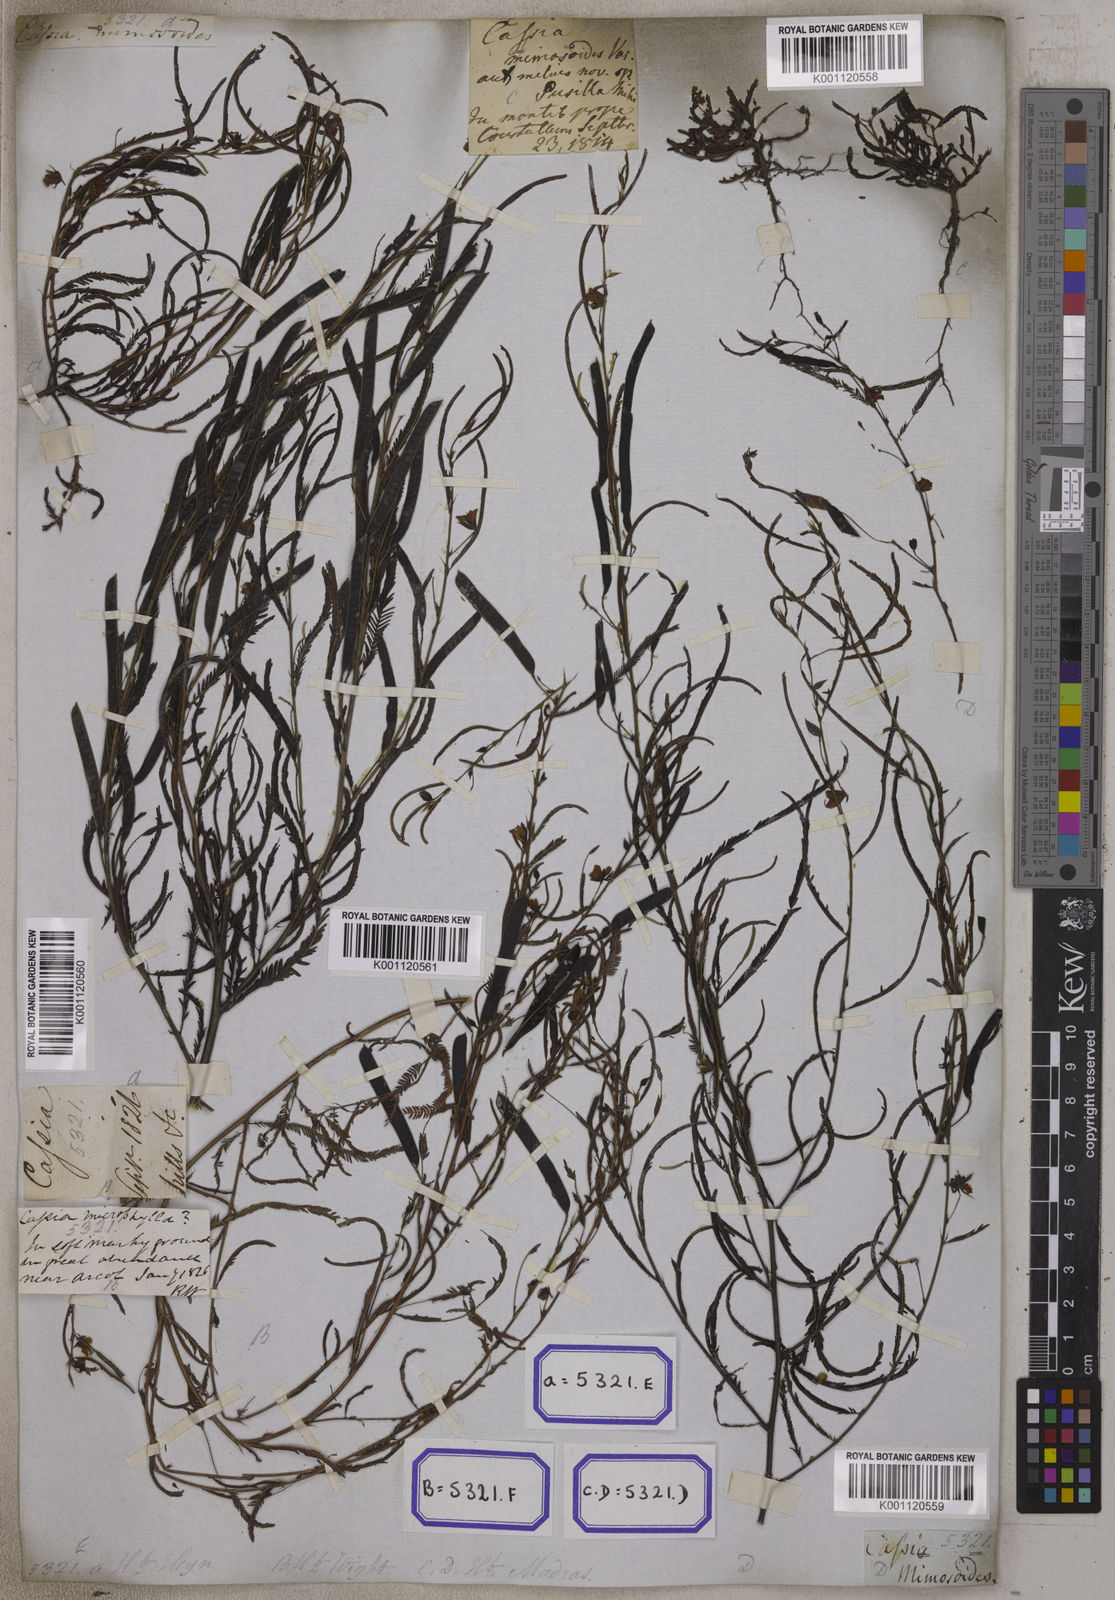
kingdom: Plantae
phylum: Tracheophyta
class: Magnoliopsida
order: Fabales
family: Fabaceae
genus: Chamaecrista
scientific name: Chamaecrista mimosoides
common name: Fish-bone cassia
